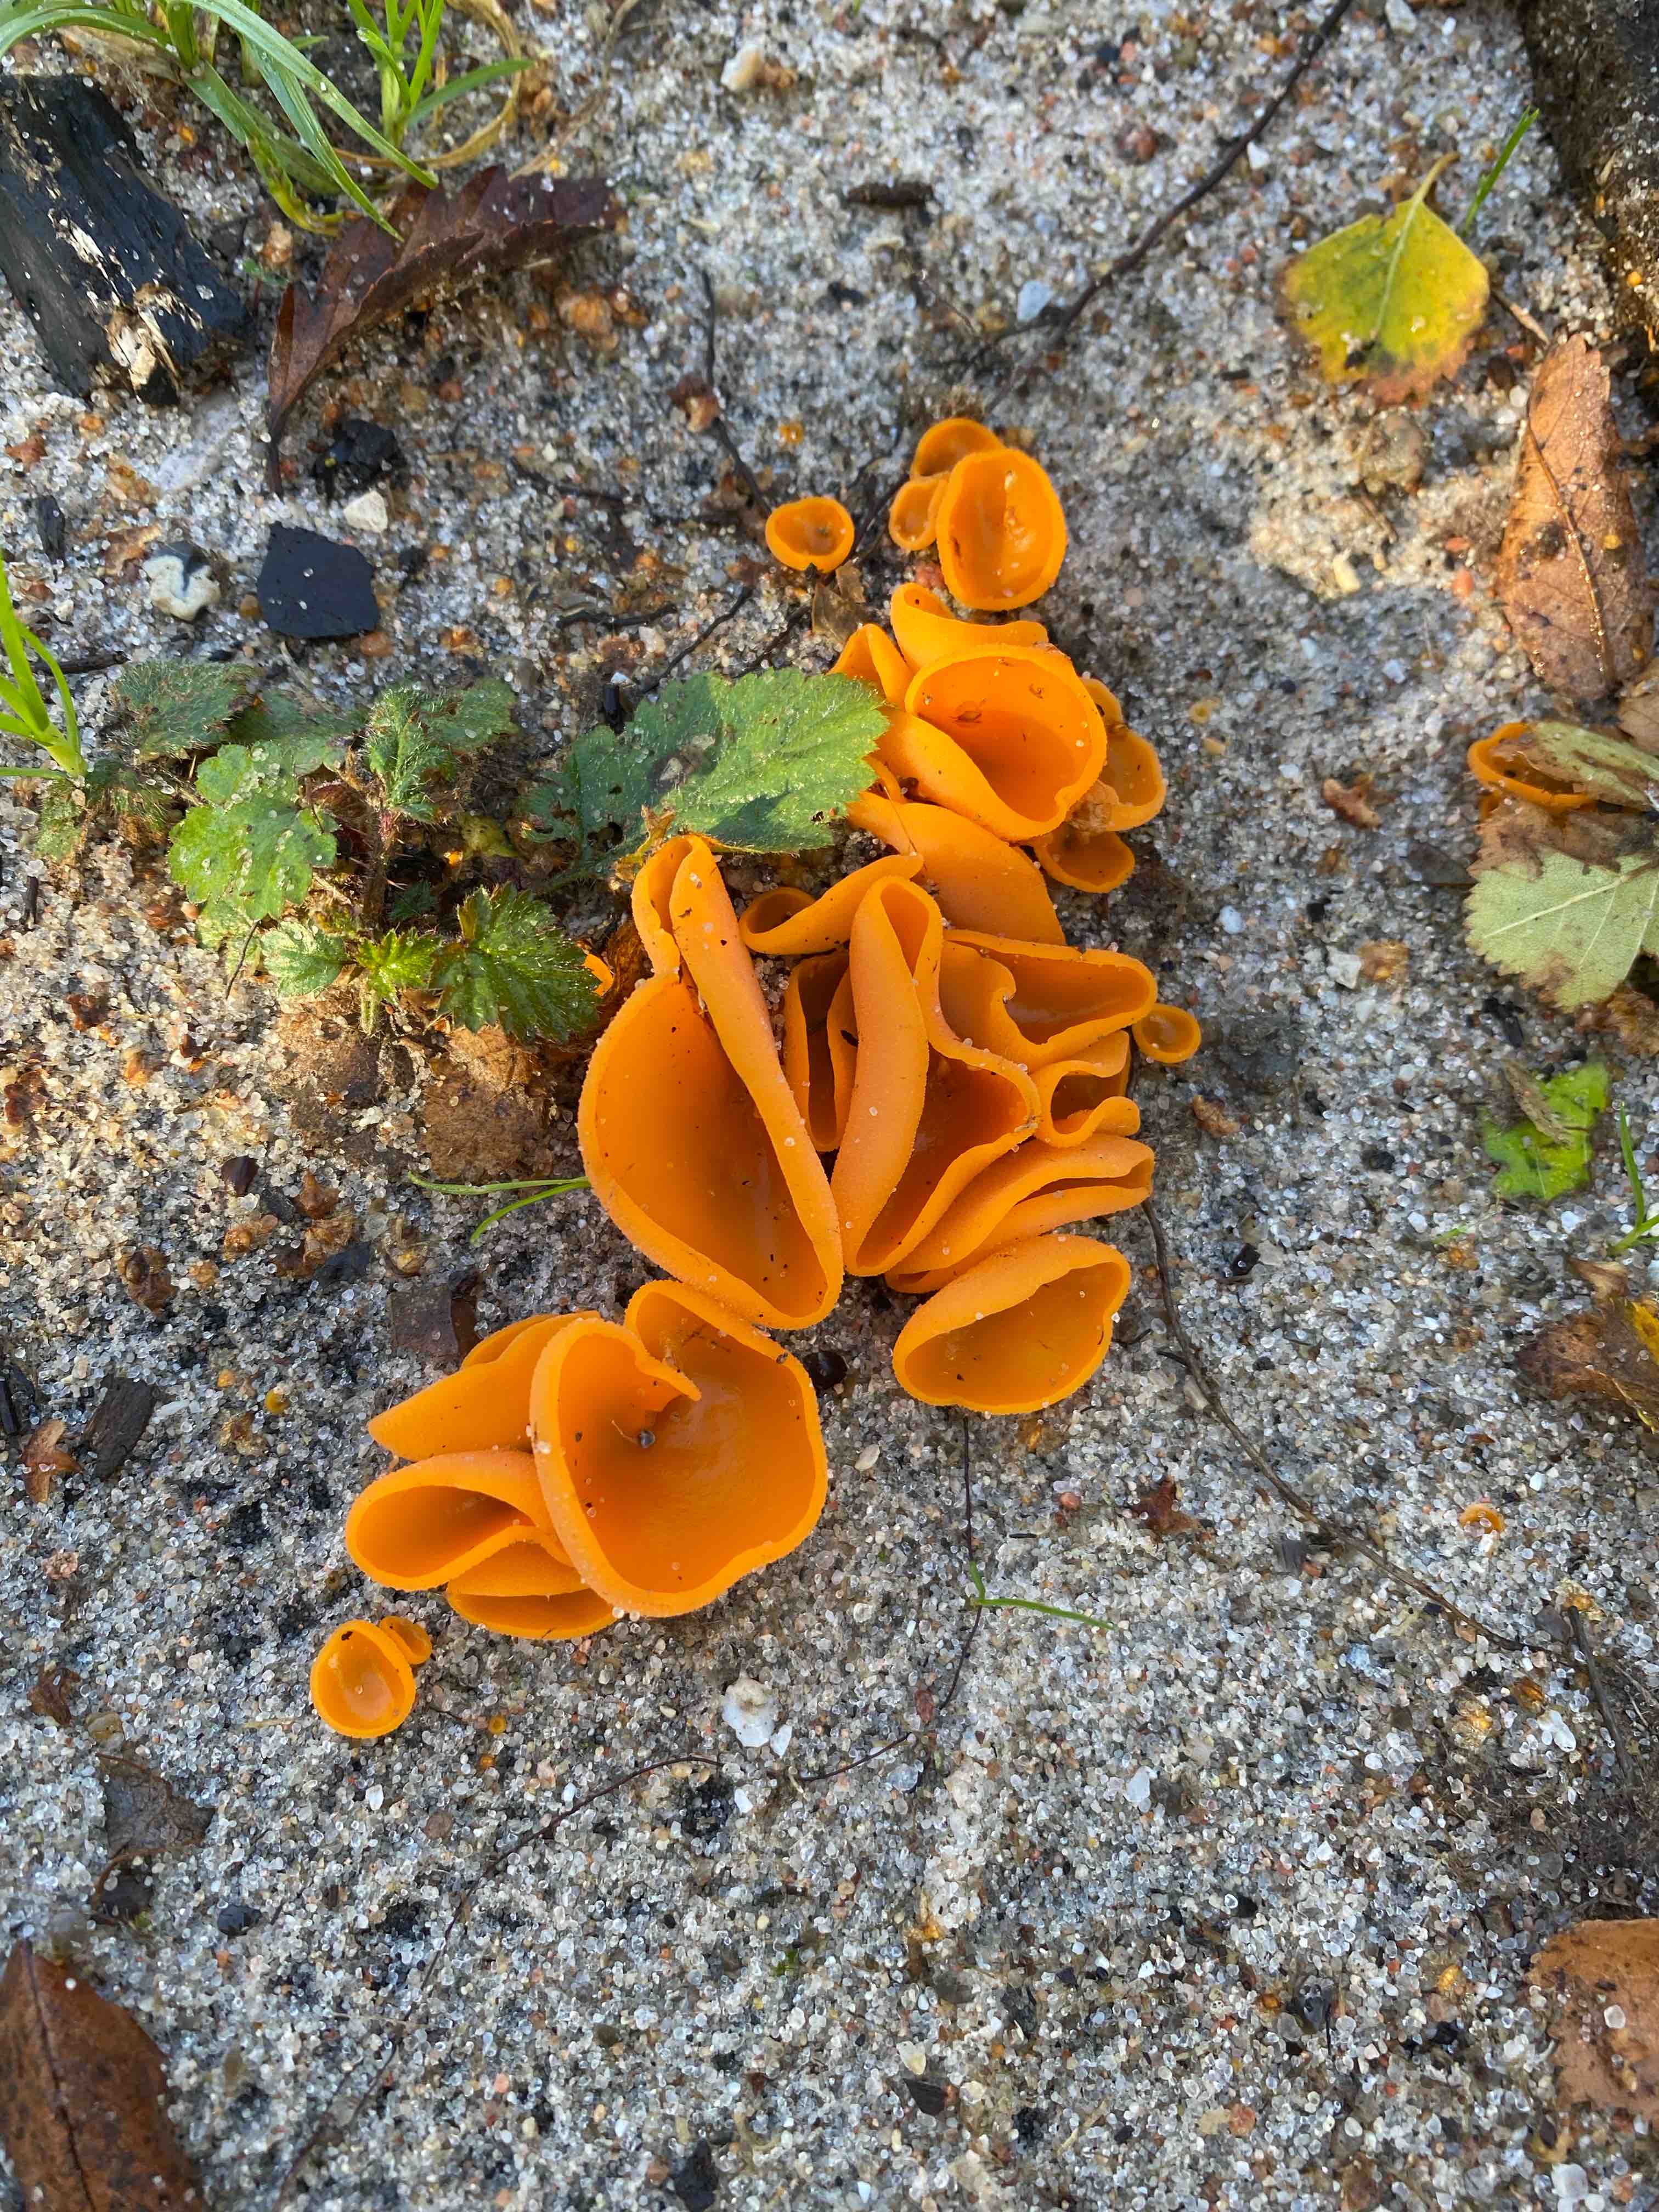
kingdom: Fungi
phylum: Ascomycota
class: Pezizomycetes
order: Pezizales
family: Pyronemataceae
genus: Aleuria
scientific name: Aleuria aurantia
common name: almindelig orangebæger
